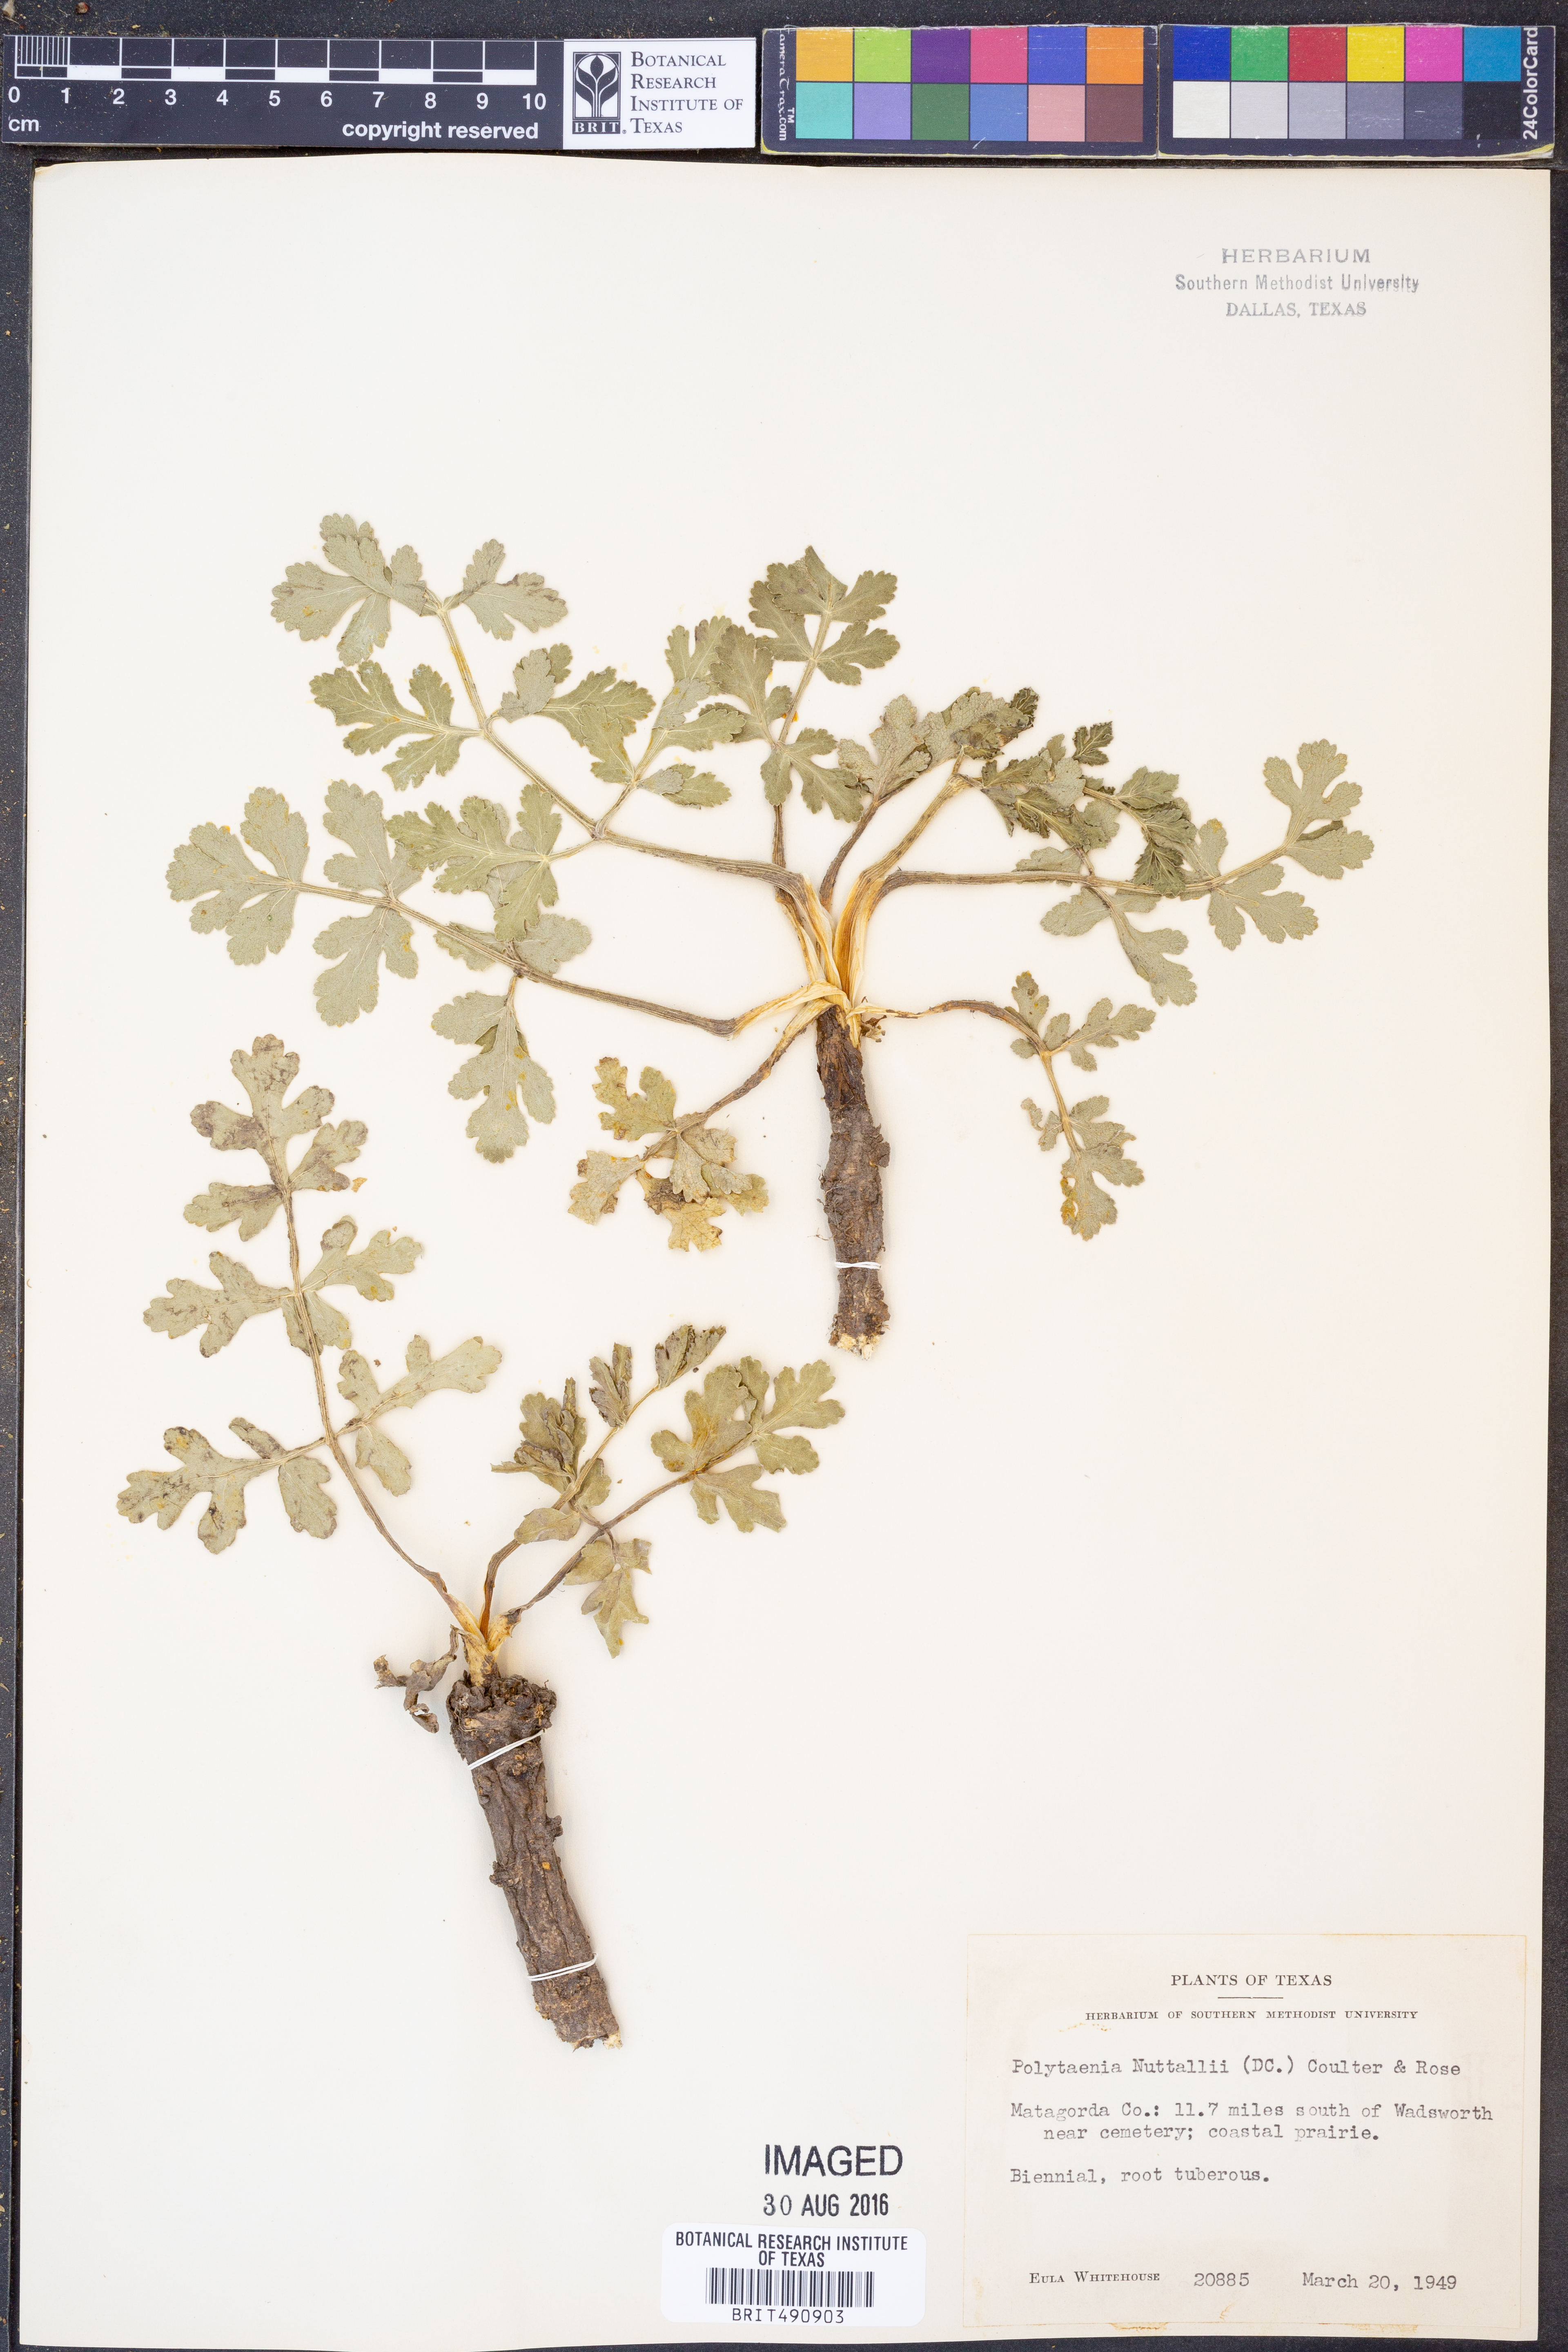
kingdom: Plantae
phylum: Tracheophyta
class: Magnoliopsida
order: Apiales
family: Apiaceae
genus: Polytaenia
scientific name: Polytaenia nuttallii
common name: Prairie-parsley
